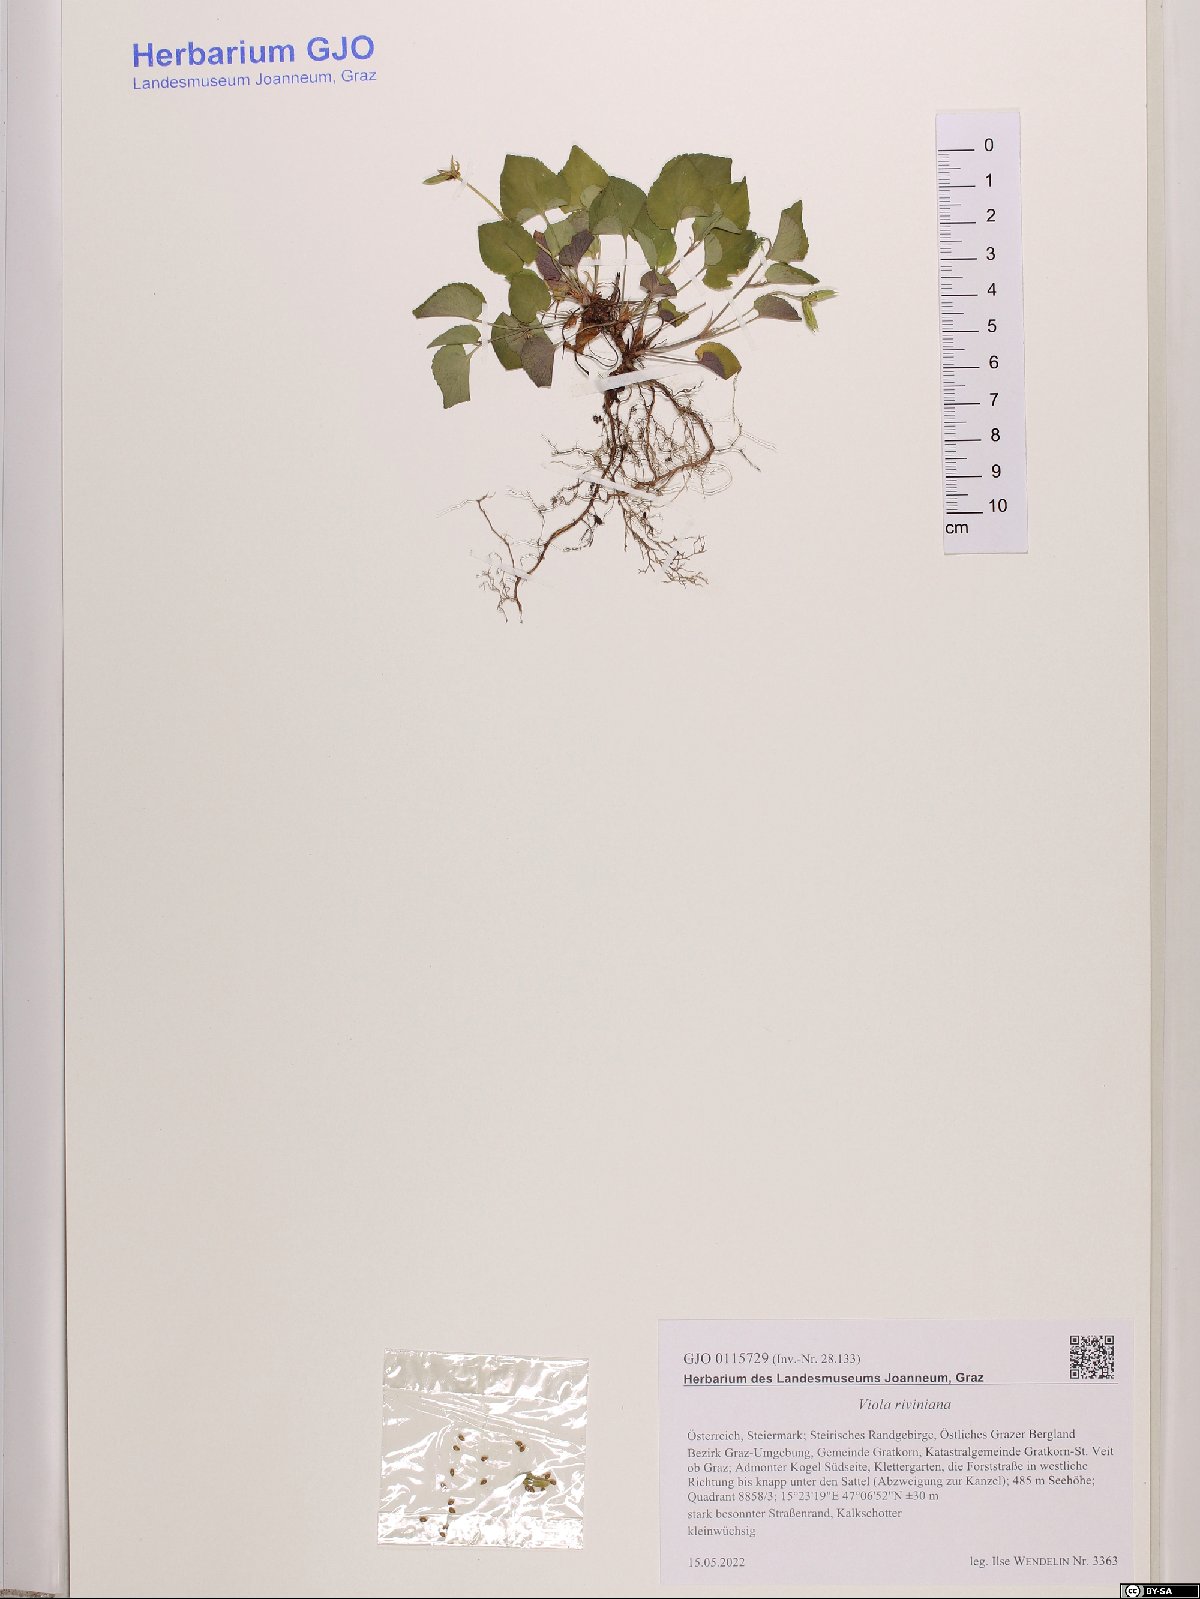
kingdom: Plantae
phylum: Tracheophyta
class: Magnoliopsida
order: Malpighiales
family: Violaceae
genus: Viola
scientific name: Viola riviniana
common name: Common dog-violet
